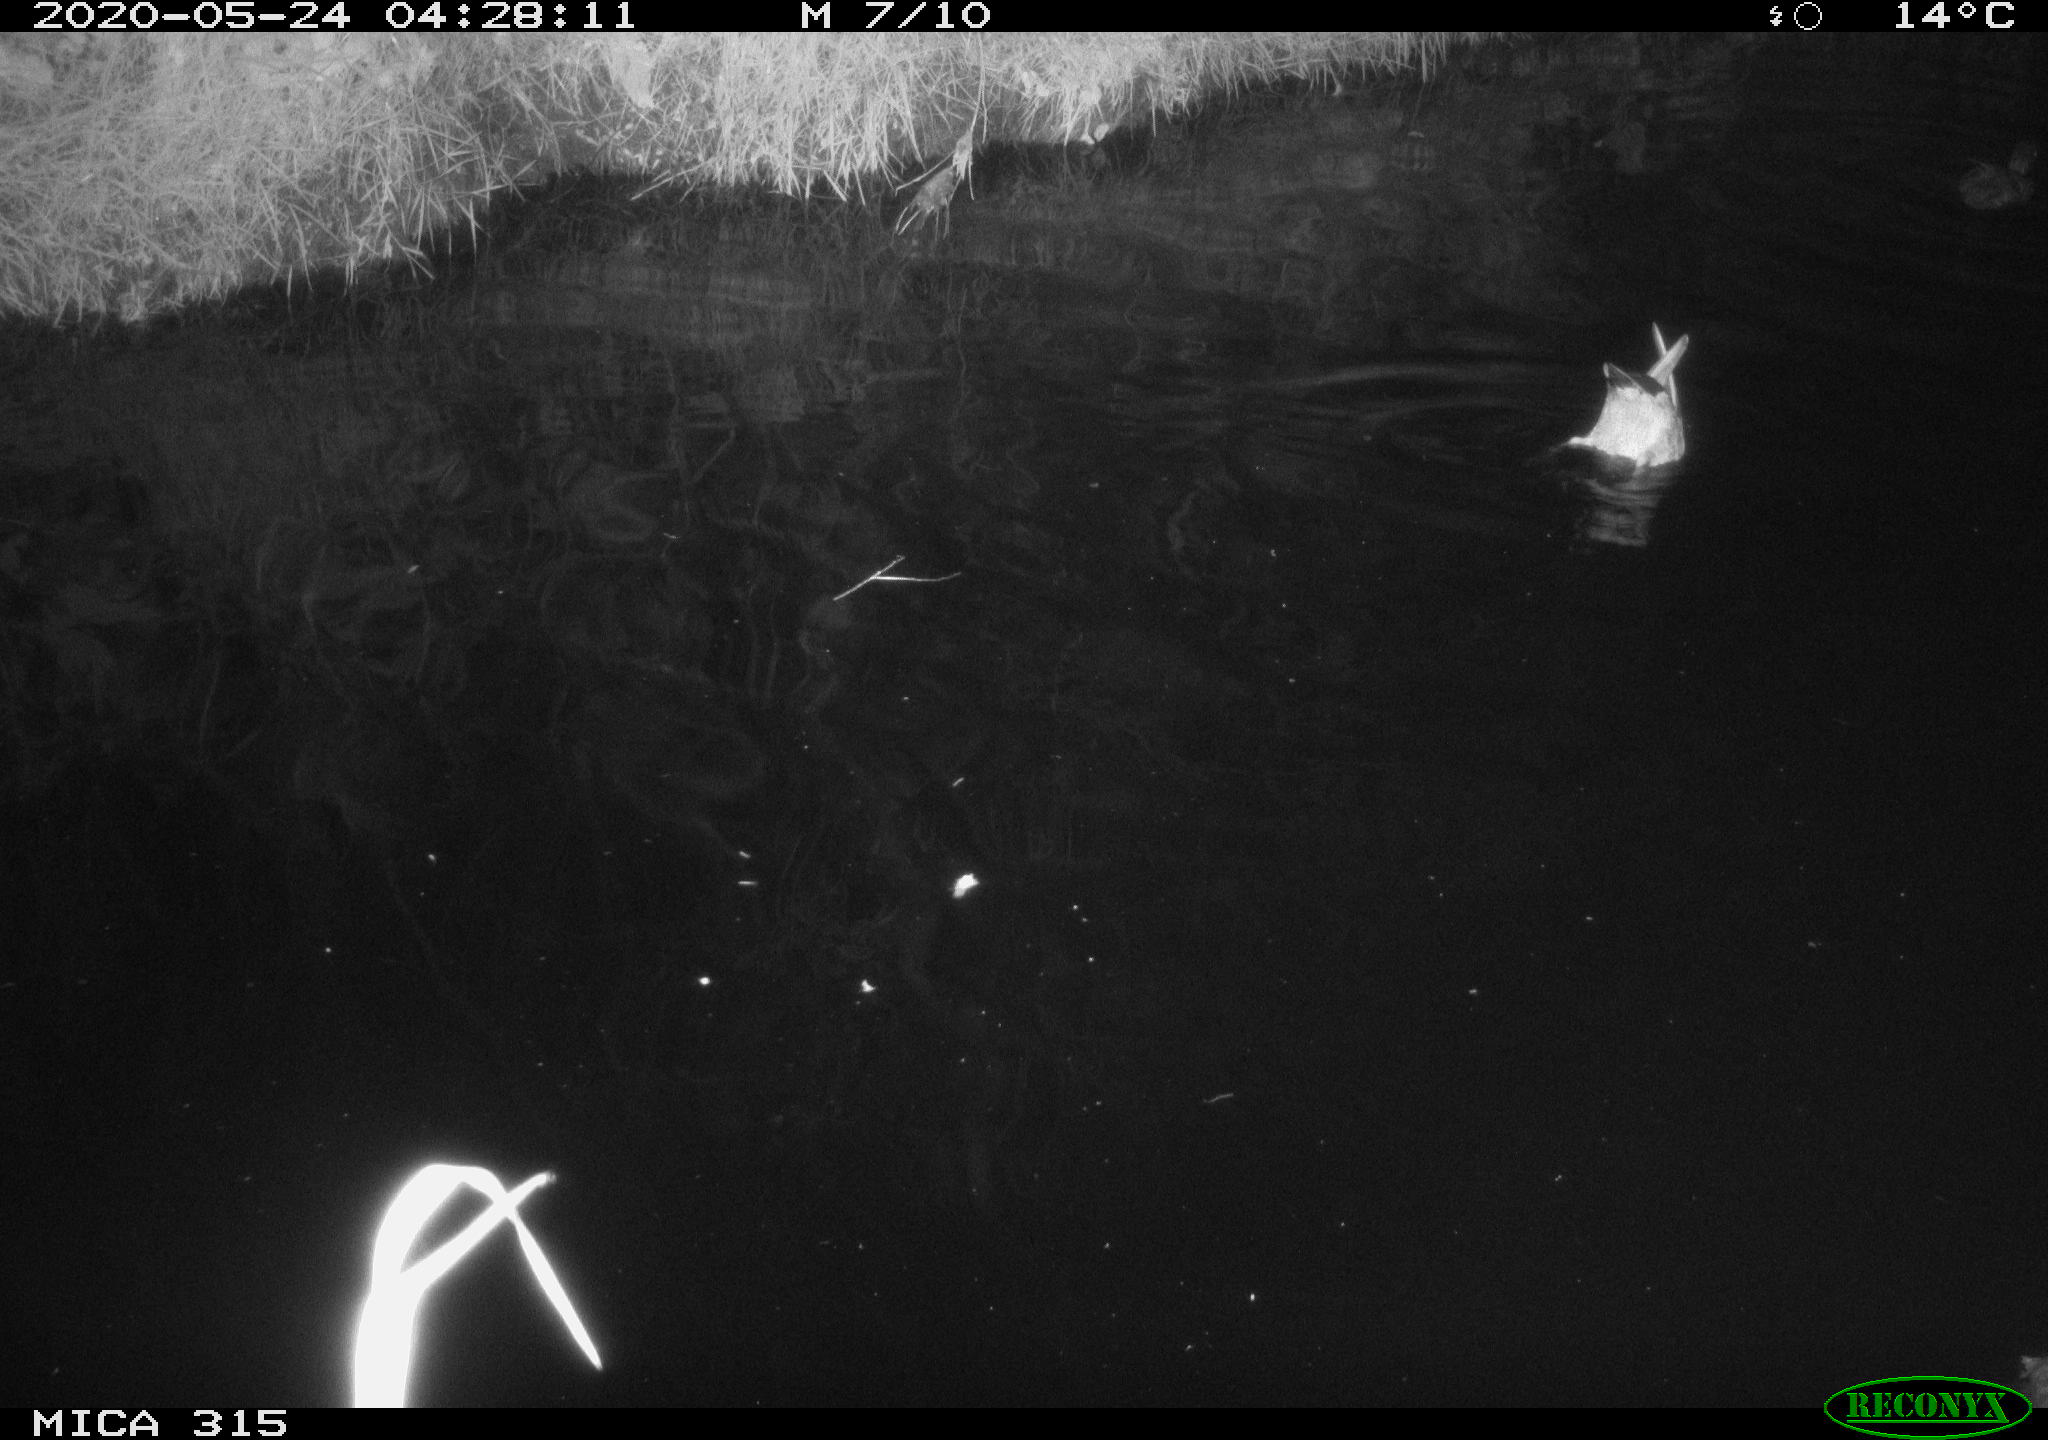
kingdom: Animalia
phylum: Chordata
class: Aves
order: Anseriformes
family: Anatidae
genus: Anas
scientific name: Anas platyrhynchos
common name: Mallard
